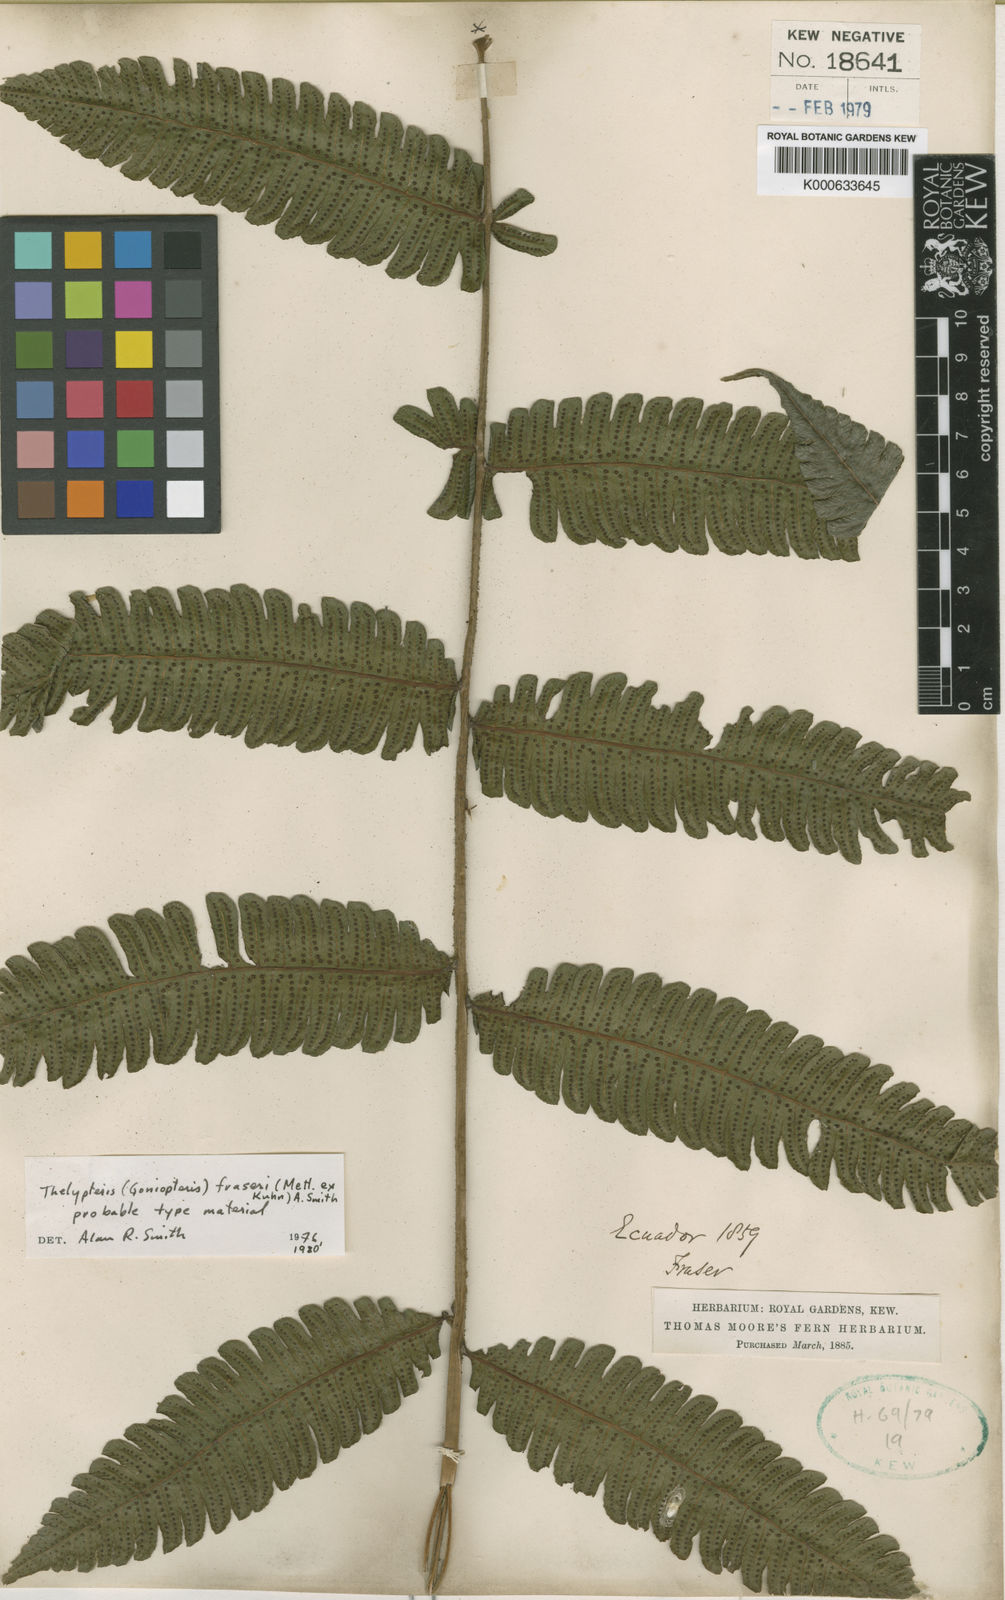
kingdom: Plantae
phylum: Tracheophyta
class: Polypodiopsida
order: Polypodiales
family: Thelypteridaceae
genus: Goniopteris
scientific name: Goniopteris fraseri
